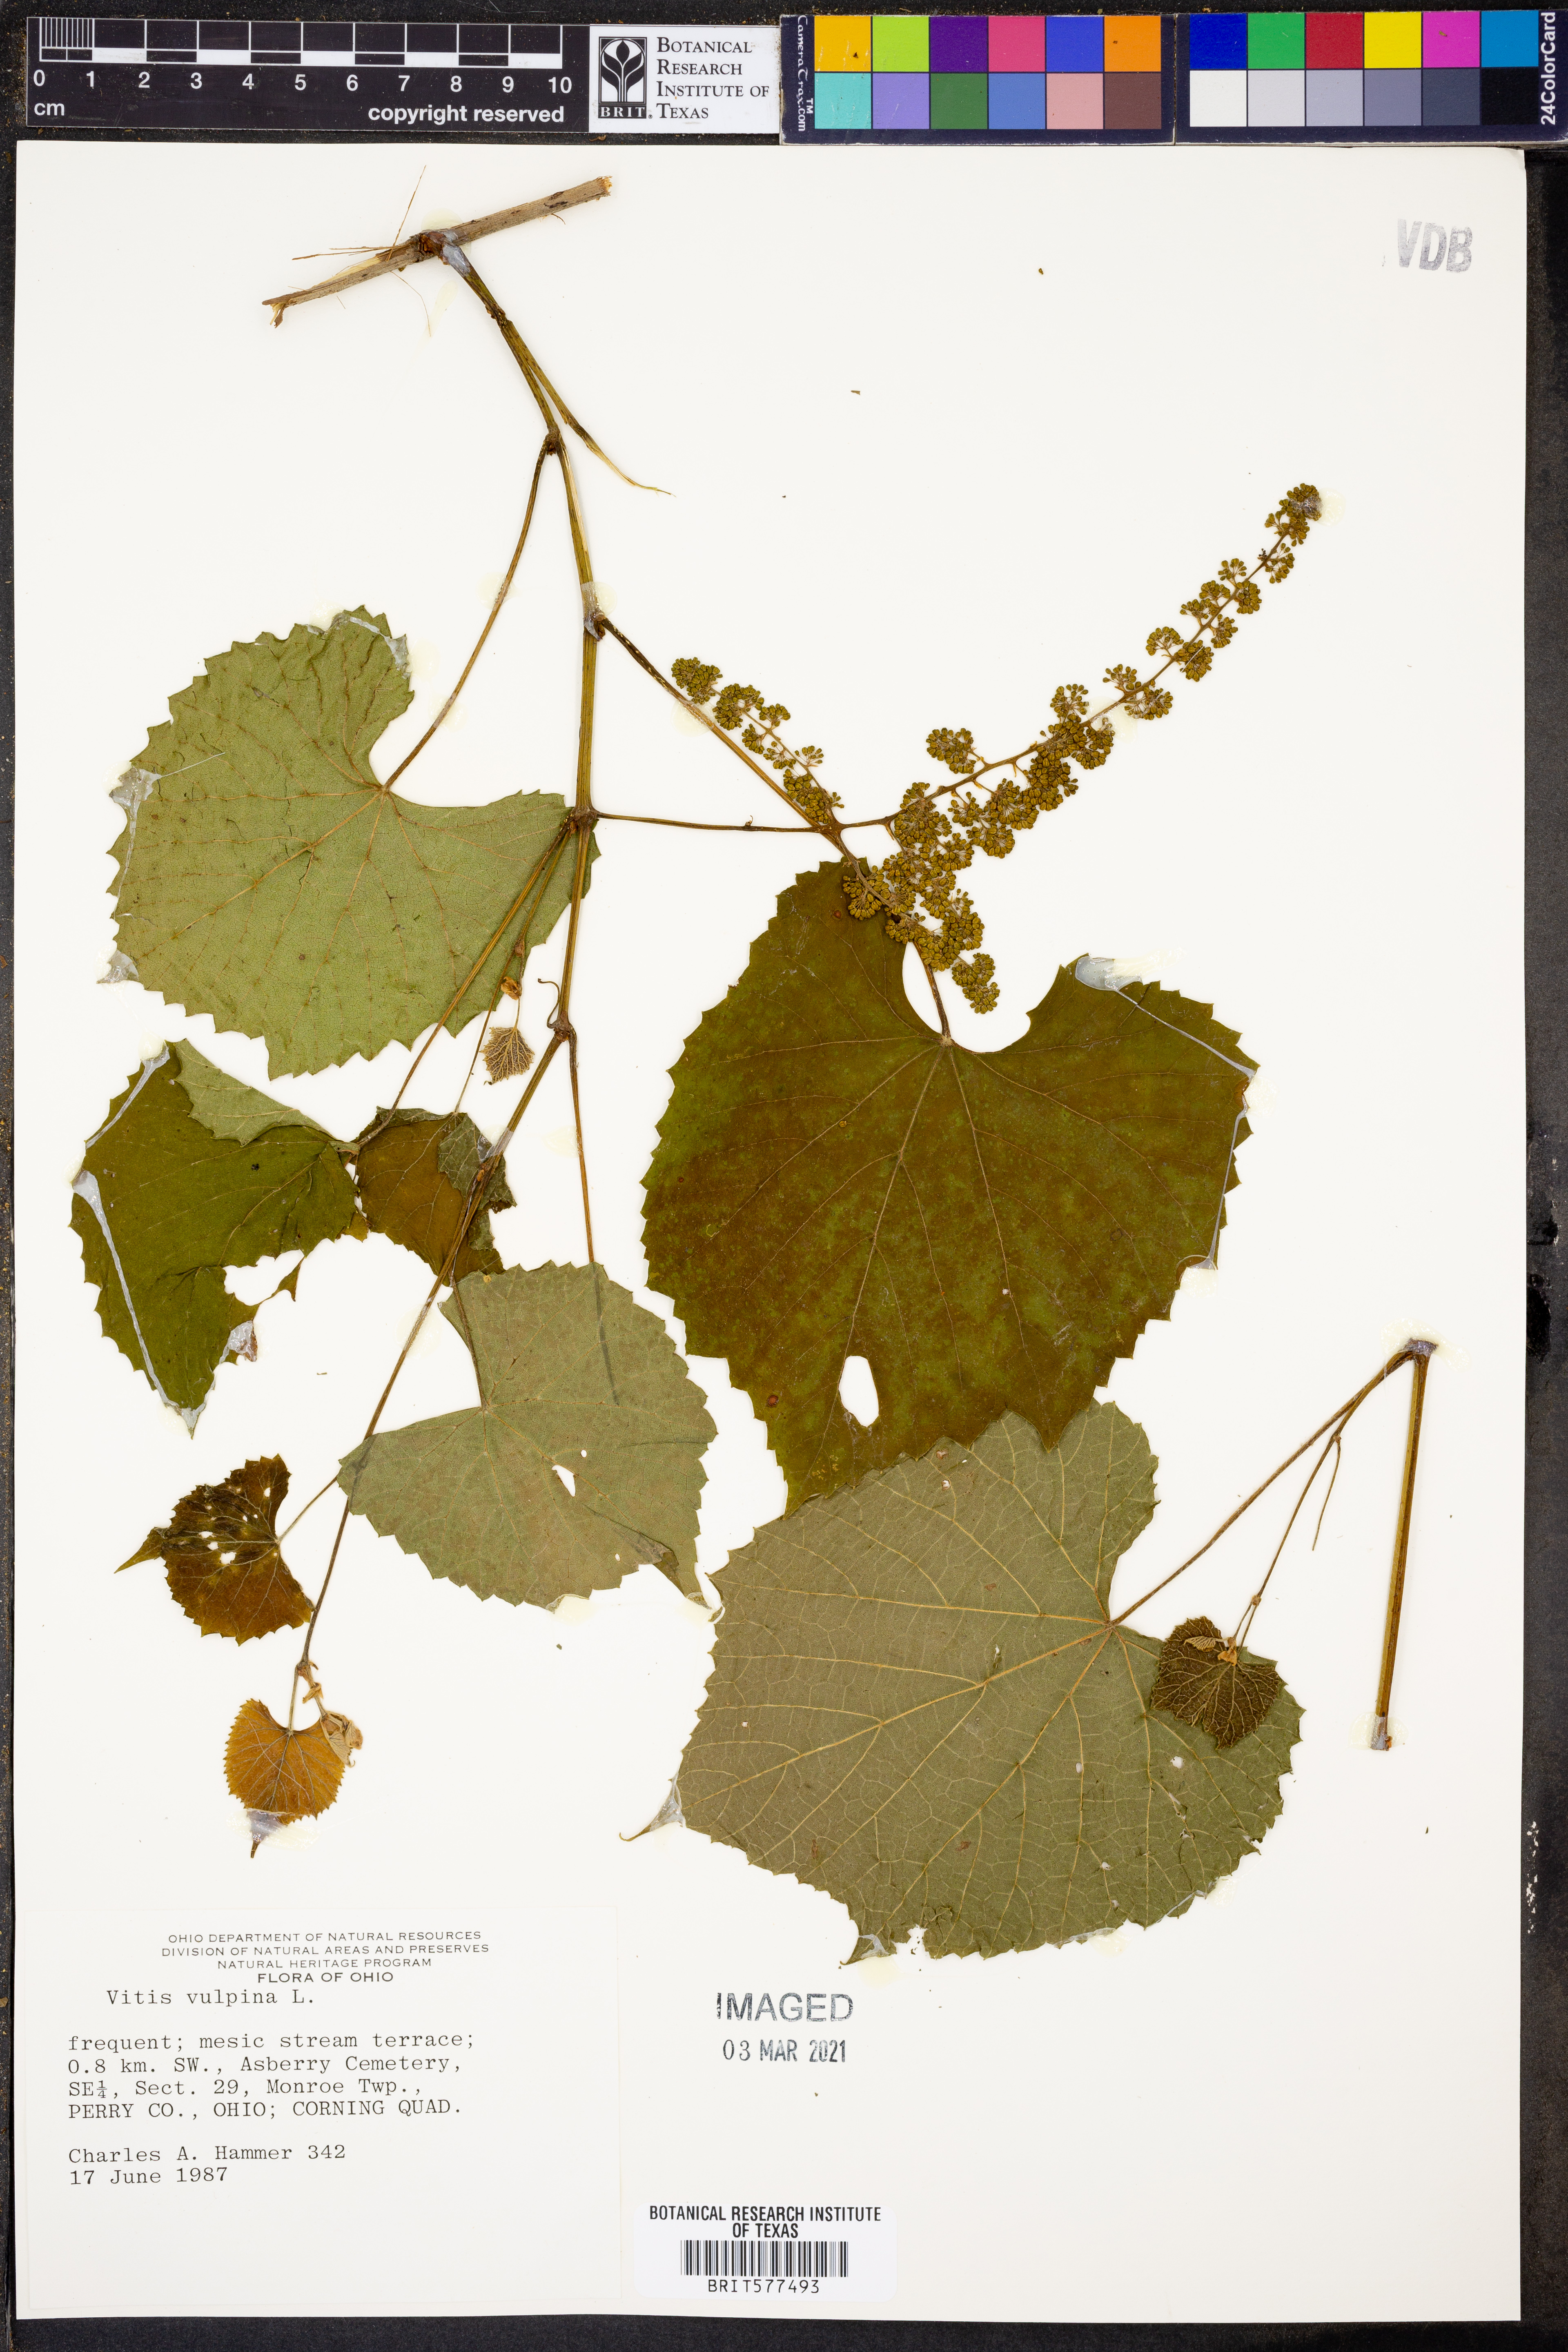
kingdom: Plantae
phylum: Tracheophyta
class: Magnoliopsida
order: Vitales
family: Vitaceae
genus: Vitis
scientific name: Vitis vulpina
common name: Frost grape
